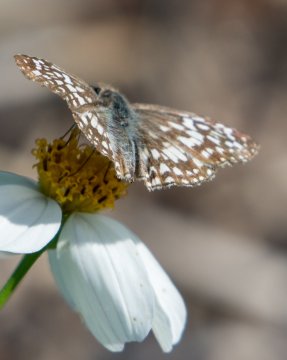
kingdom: Animalia
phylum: Arthropoda
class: Insecta
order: Lepidoptera
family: Hesperiidae
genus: Pyrgus
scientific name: Pyrgus oileus
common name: Tropical Checkered-Skipper
